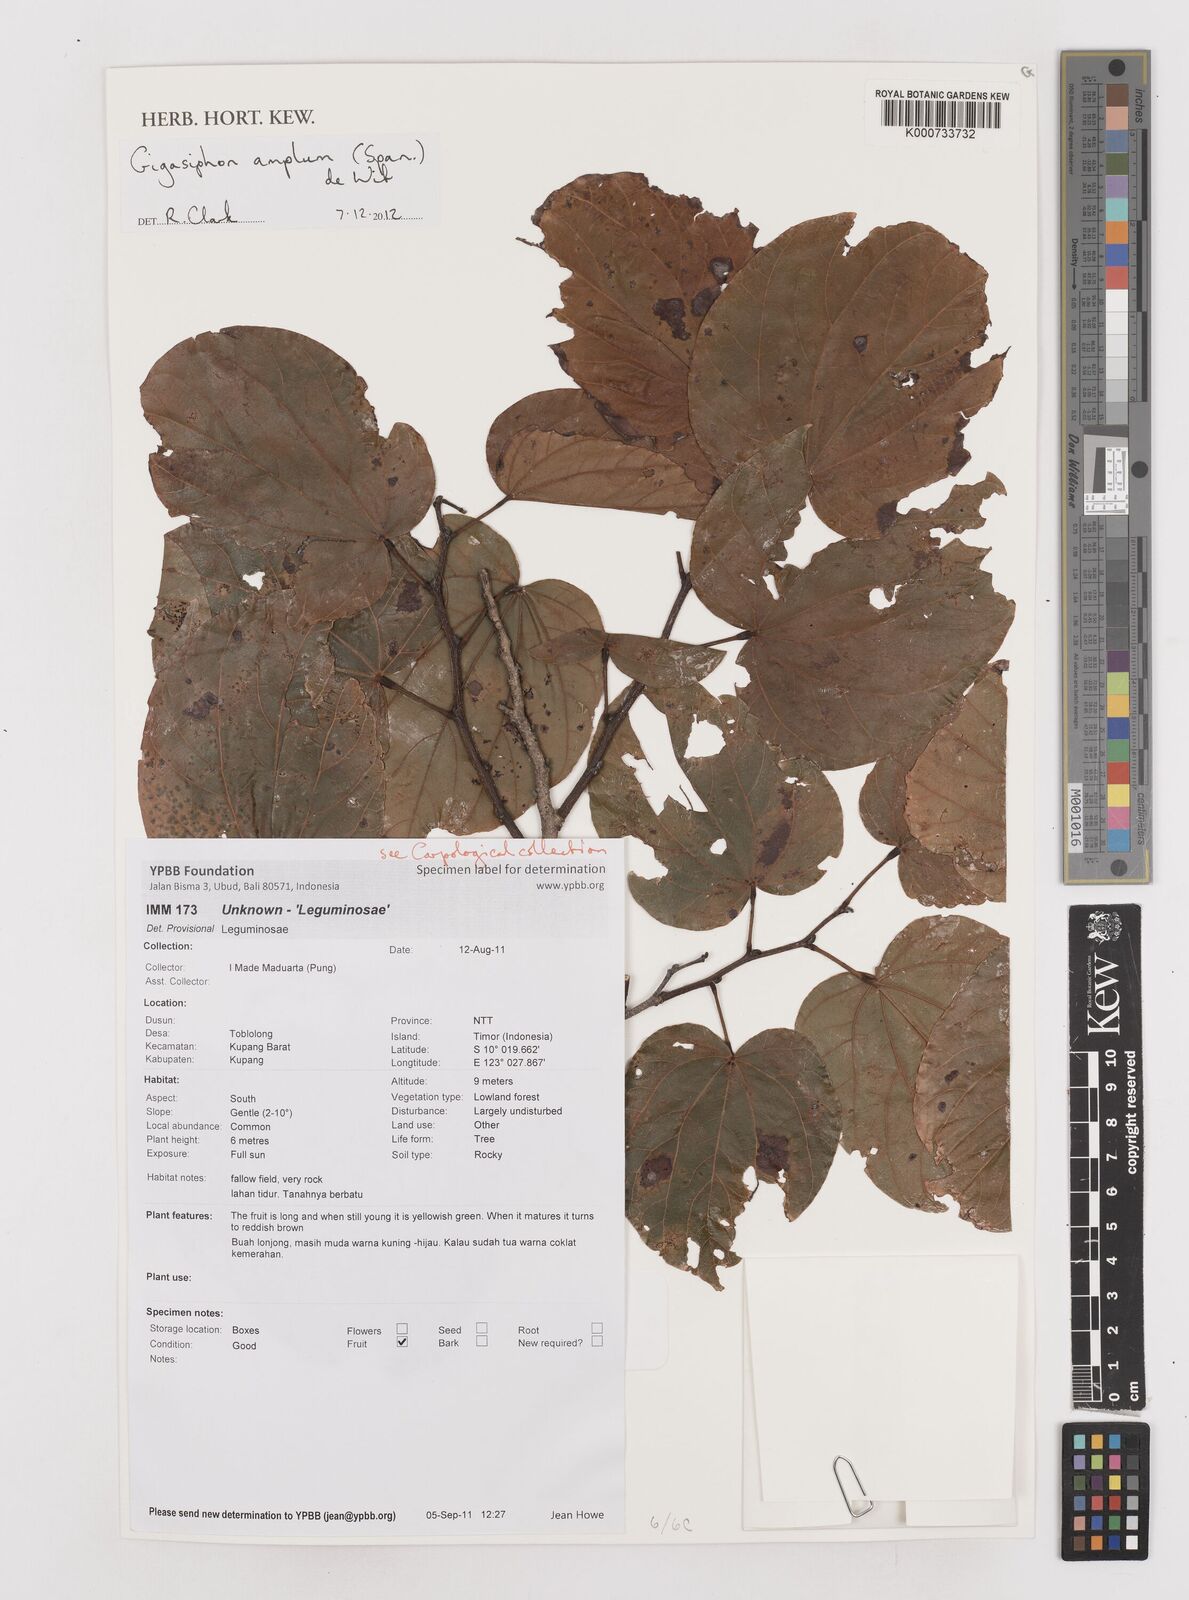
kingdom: Plantae
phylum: Tracheophyta
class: Magnoliopsida
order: Fabales
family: Fabaceae
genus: Gigasiphon
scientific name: Gigasiphon amplum
